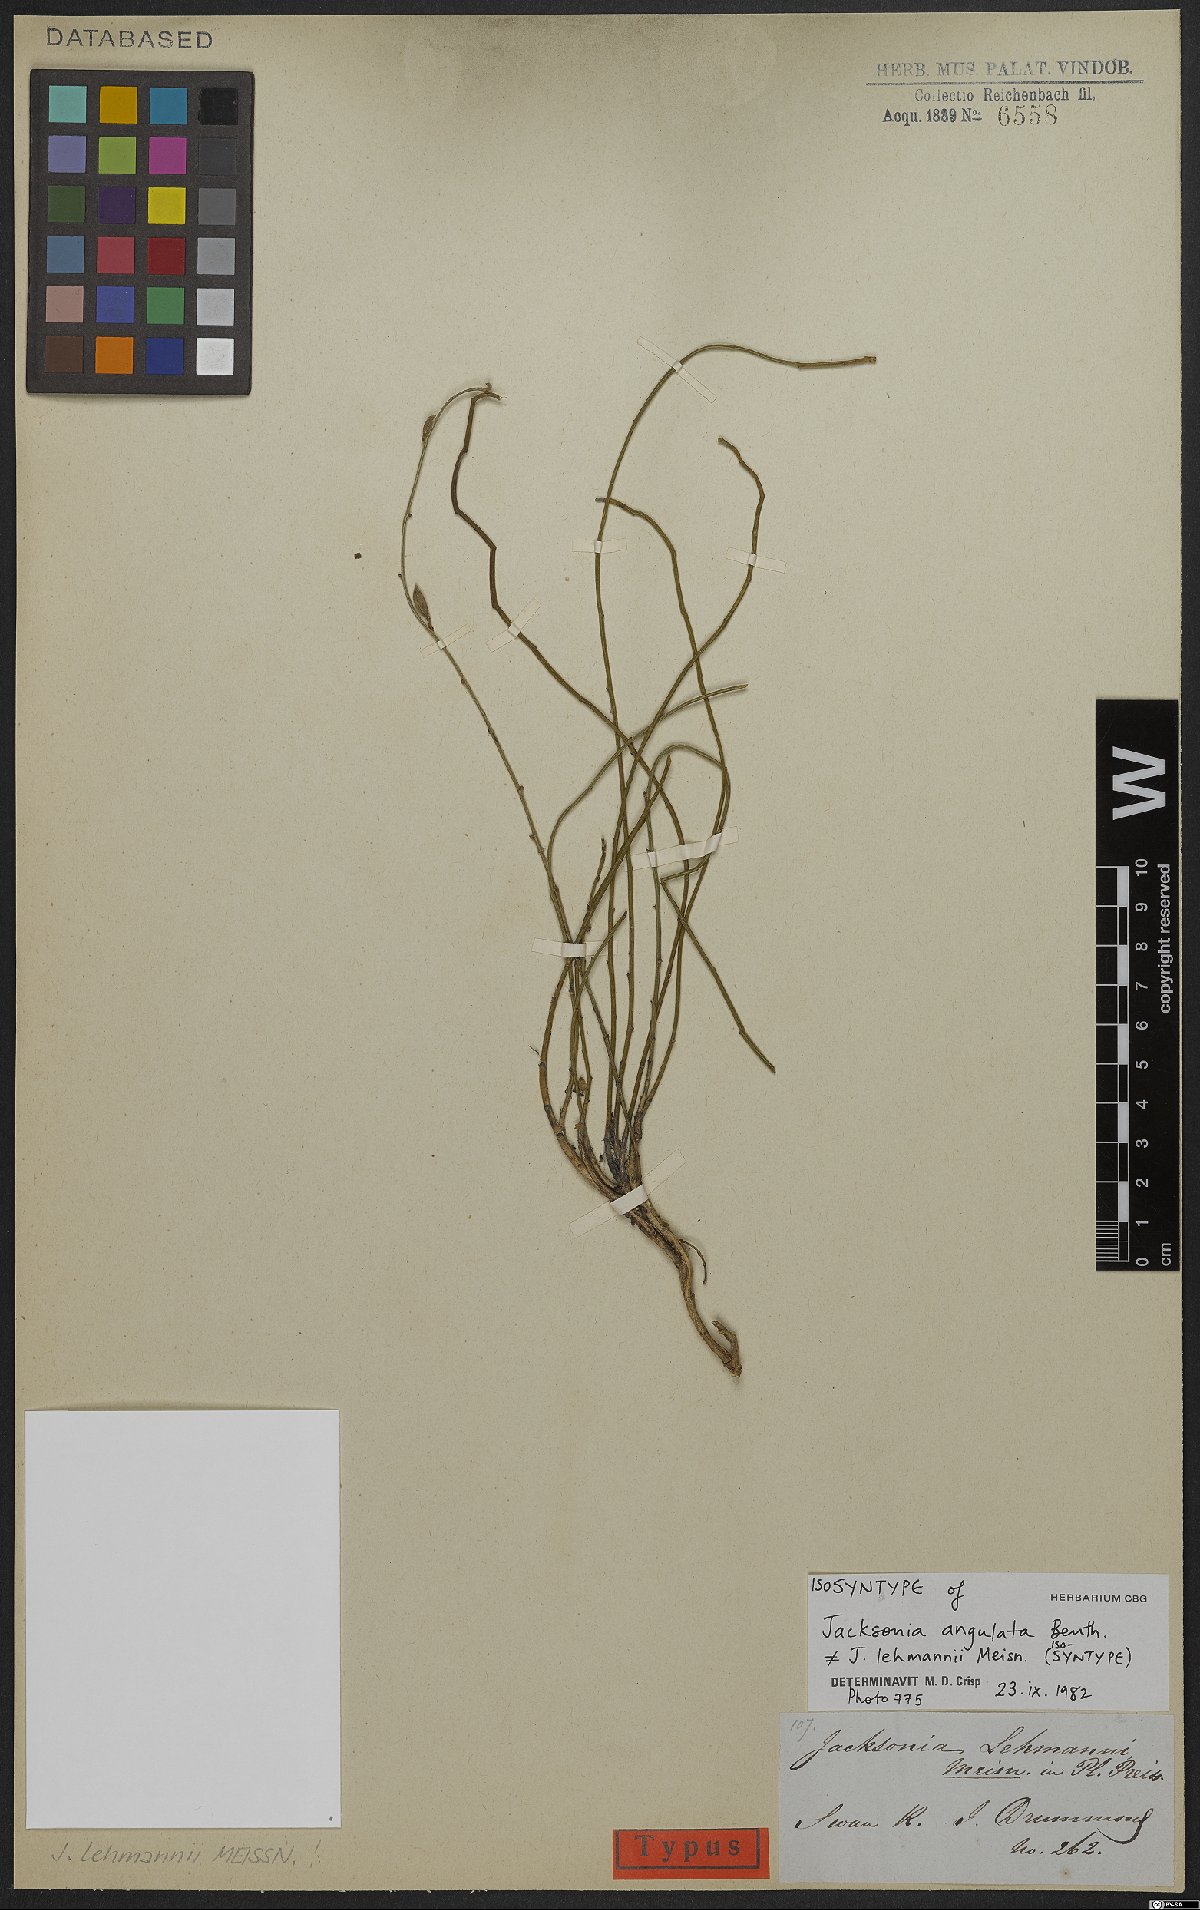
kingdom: Plantae
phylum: Tracheophyta
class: Magnoliopsida
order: Fabales
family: Fabaceae
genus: Jacksonia
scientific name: Jacksonia angulata
